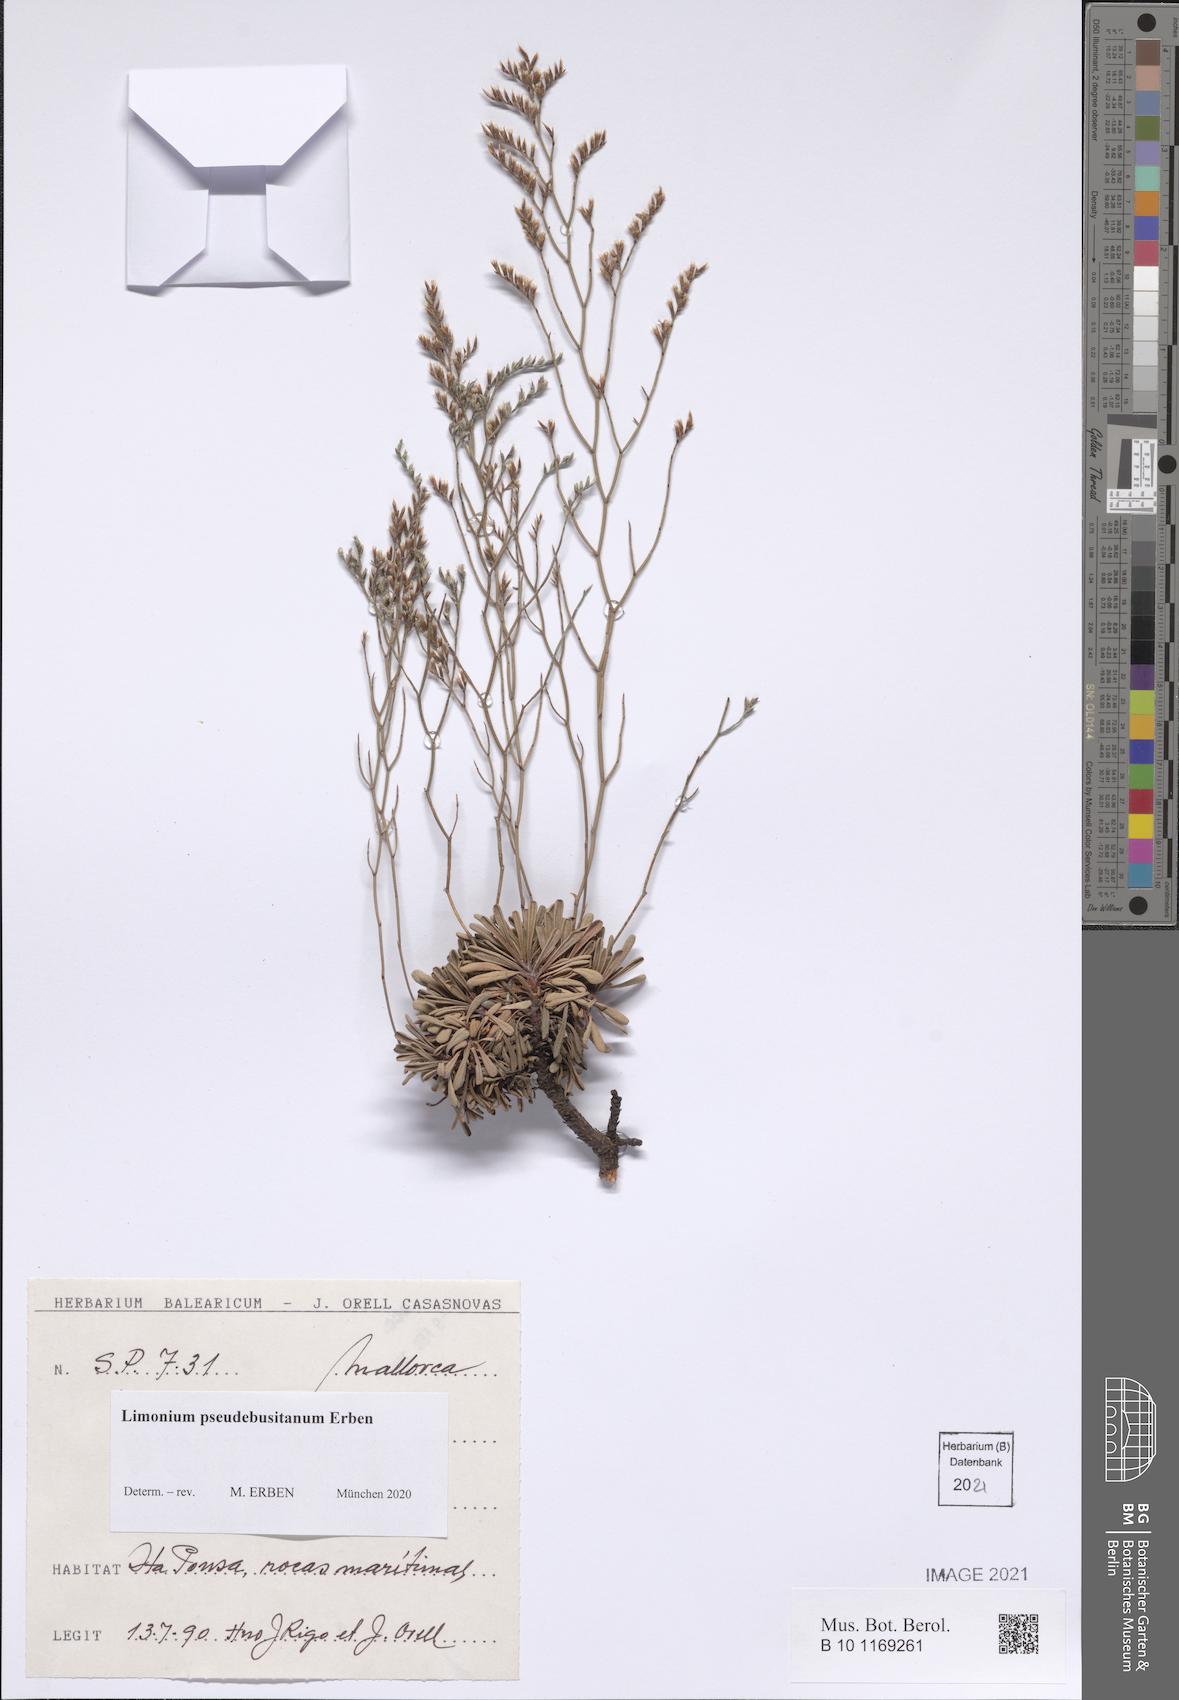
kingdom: Plantae
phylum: Tracheophyta
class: Magnoliopsida
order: Caryophyllales
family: Plumbaginaceae
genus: Limonium
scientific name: Limonium pseudebusitanum
